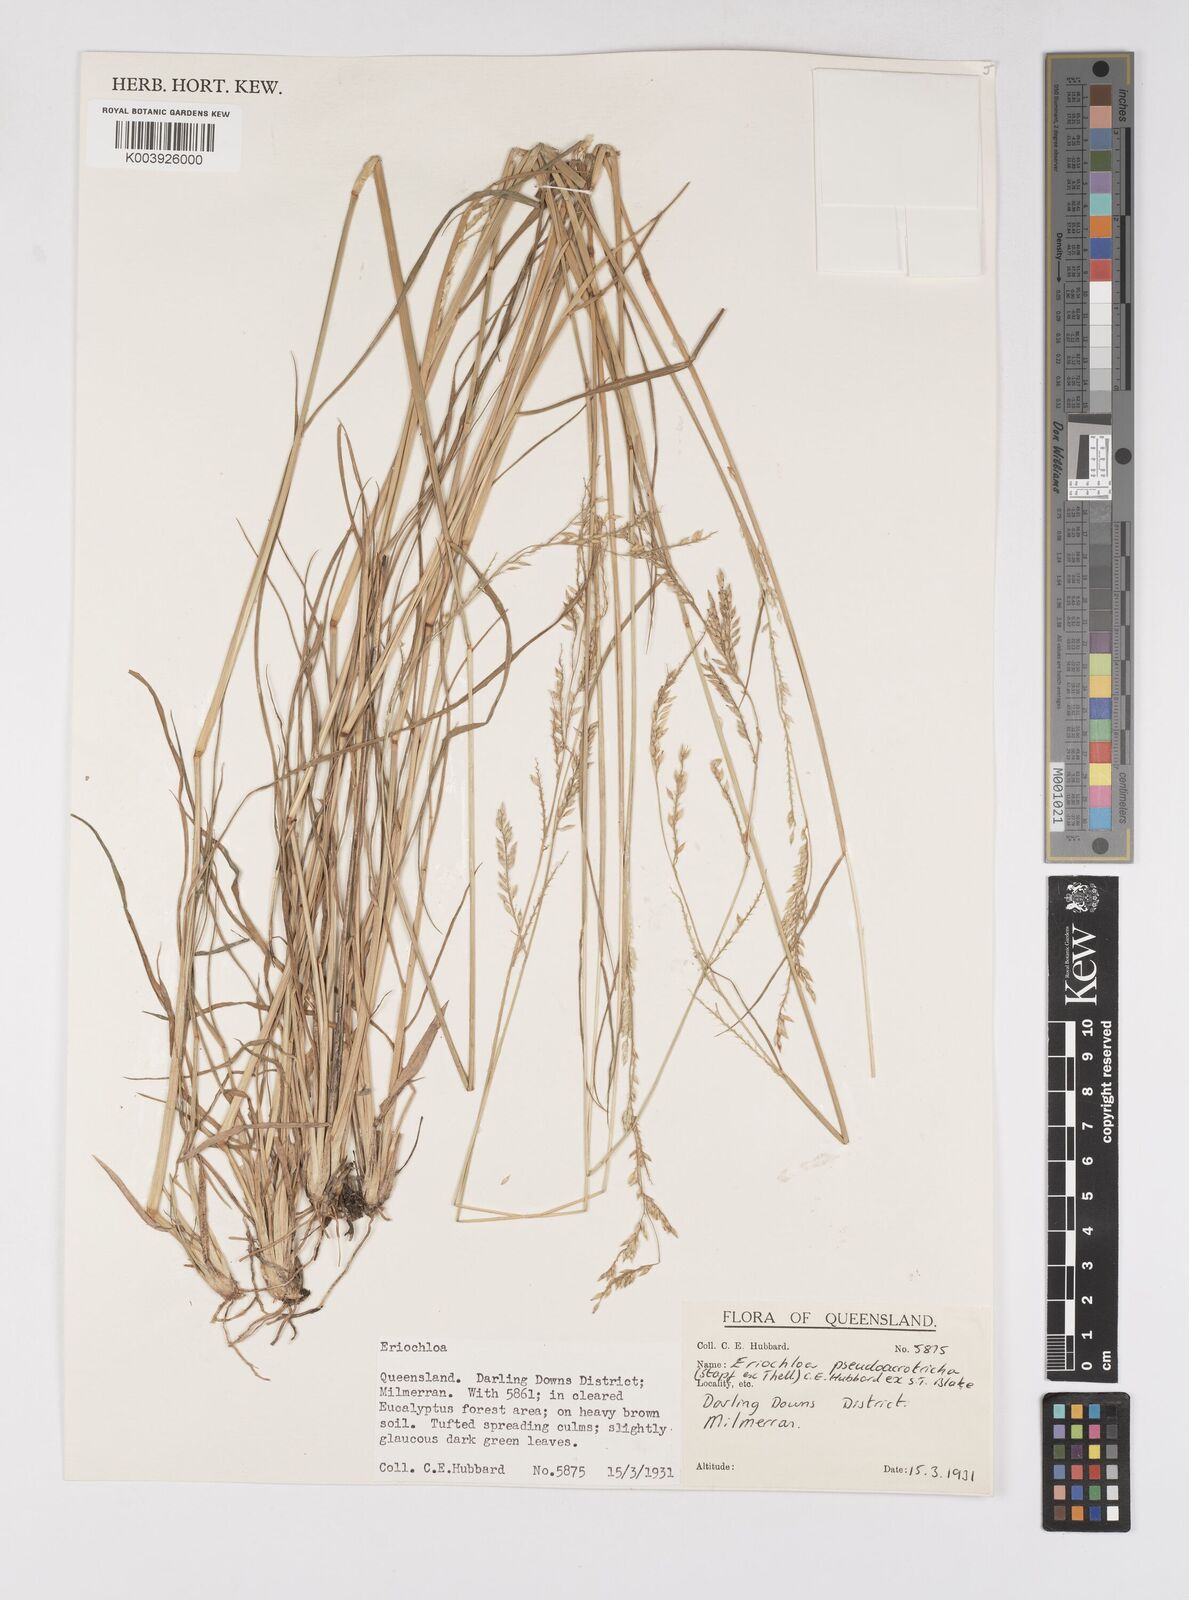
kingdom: Plantae
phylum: Tracheophyta
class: Liliopsida
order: Poales
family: Poaceae
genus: Eriochloa
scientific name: Eriochloa pseudoacrotricha
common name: Perennial cup-grass
